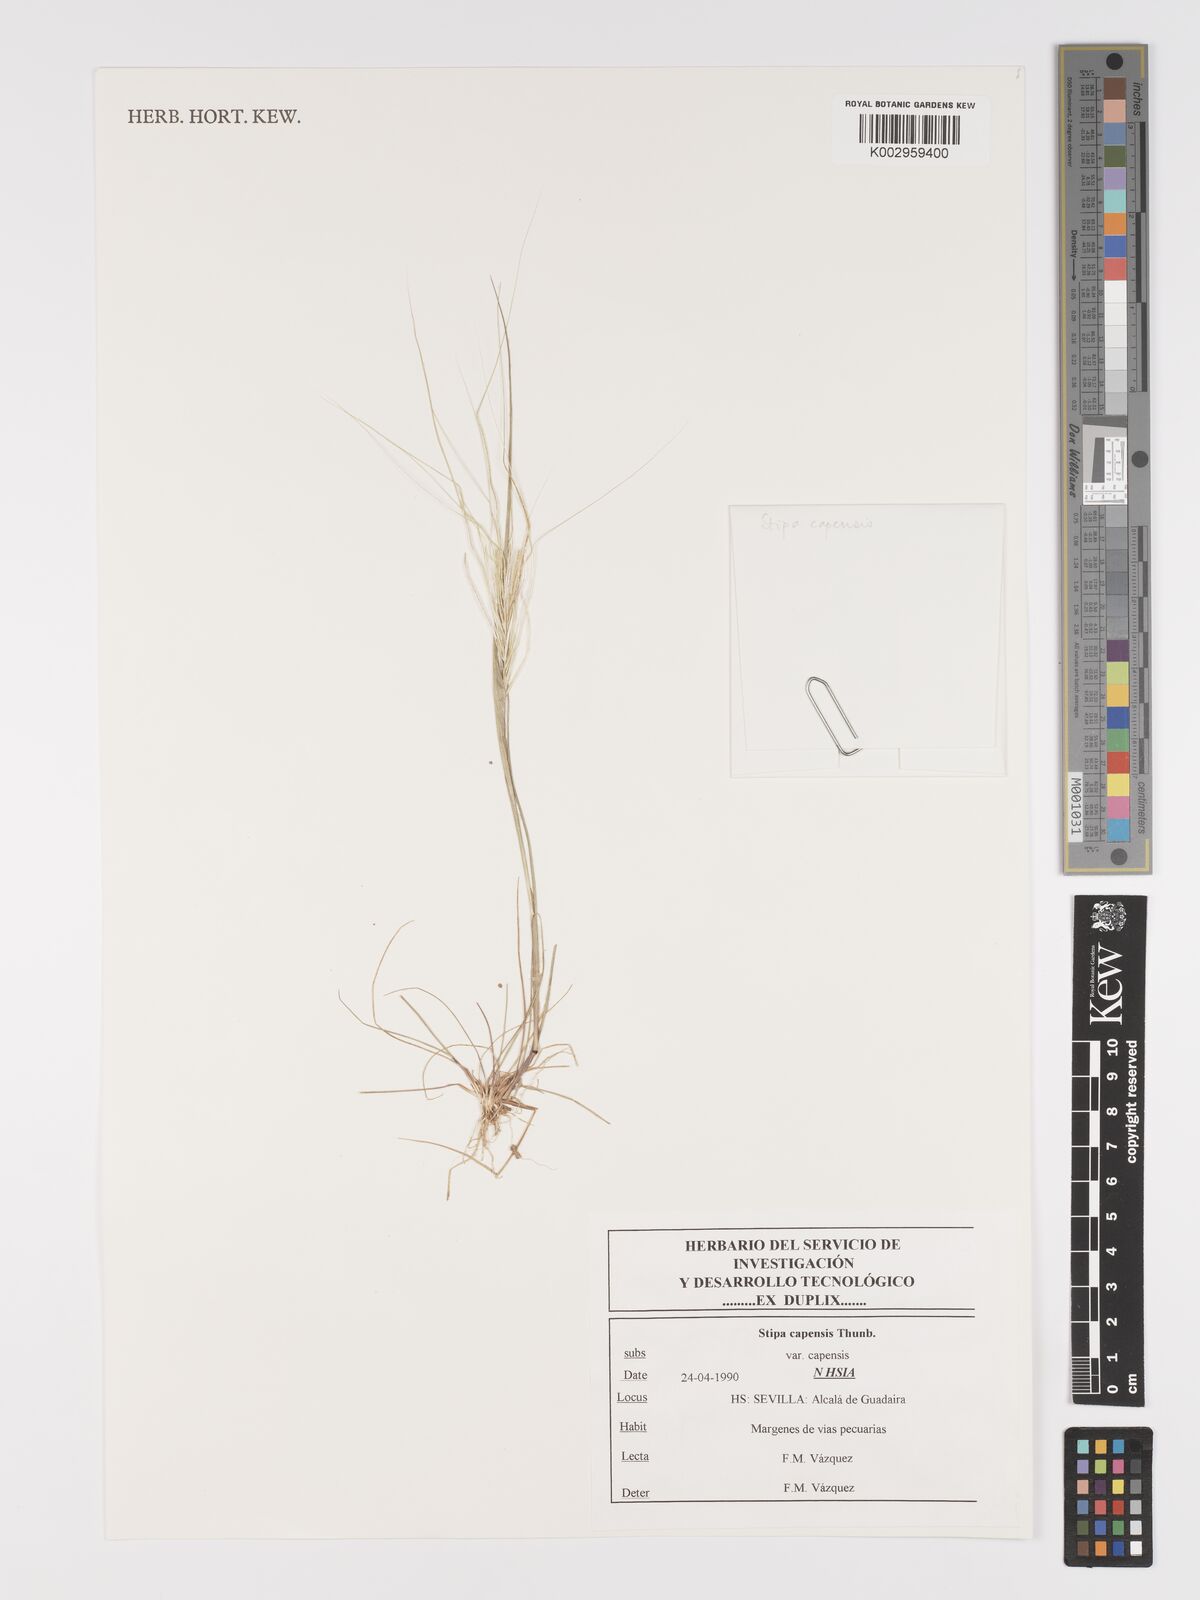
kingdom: Plantae
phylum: Tracheophyta
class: Liliopsida
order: Poales
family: Poaceae
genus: Stipellula
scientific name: Stipellula capensis
